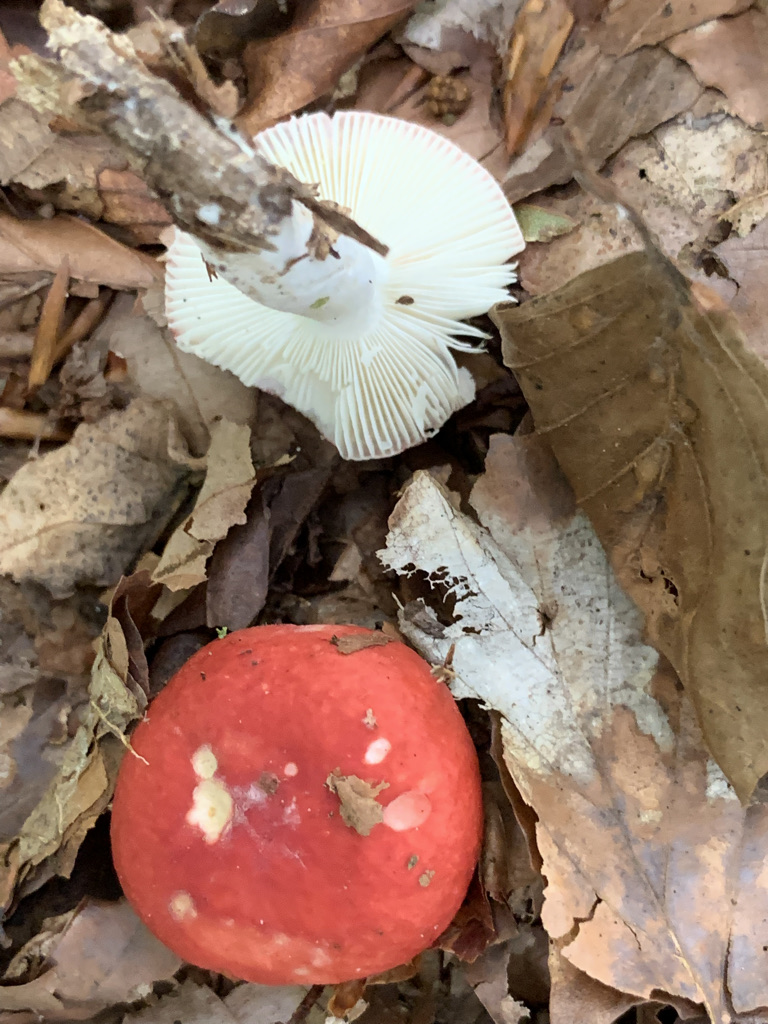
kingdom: Fungi
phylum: Basidiomycota
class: Agaricomycetes
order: Russulales
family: Russulaceae
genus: Russula
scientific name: Russula nobilis
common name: lille gift-skørhat
